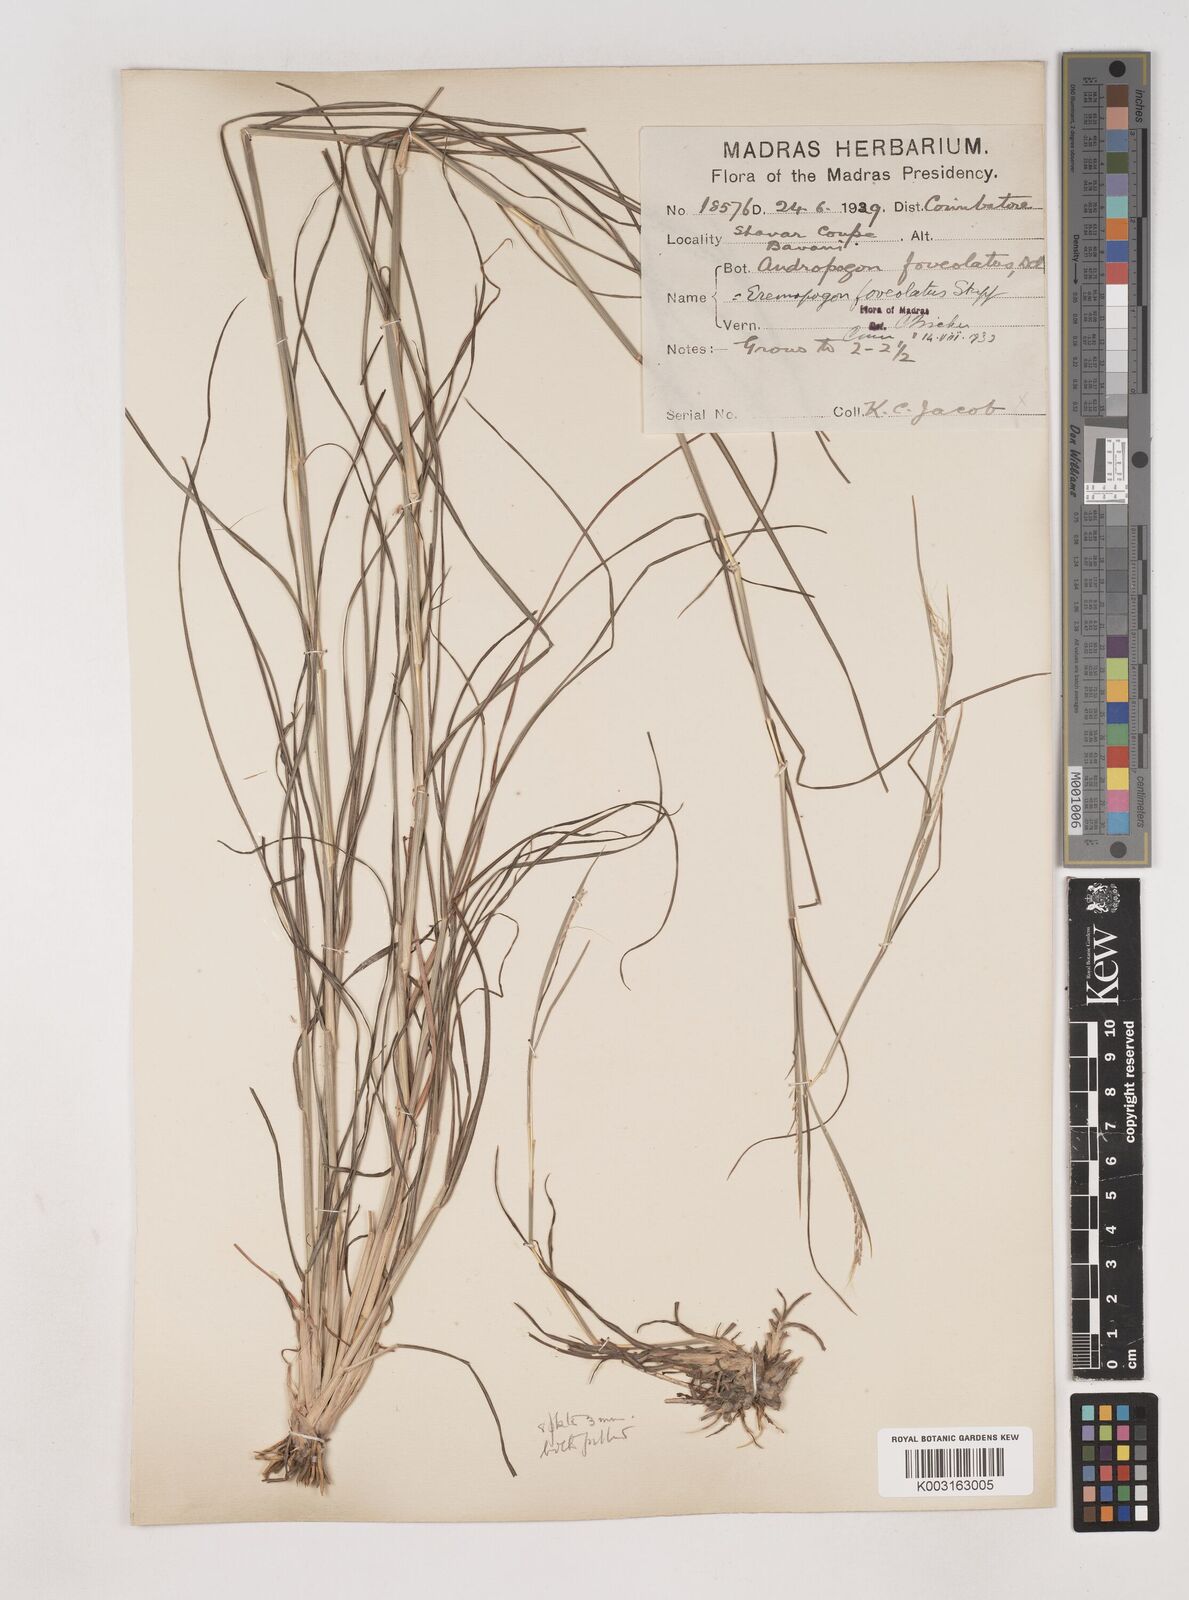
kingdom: Plantae
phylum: Tracheophyta
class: Liliopsida
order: Poales
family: Poaceae
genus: Dichanthium
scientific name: Dichanthium foveolatum
